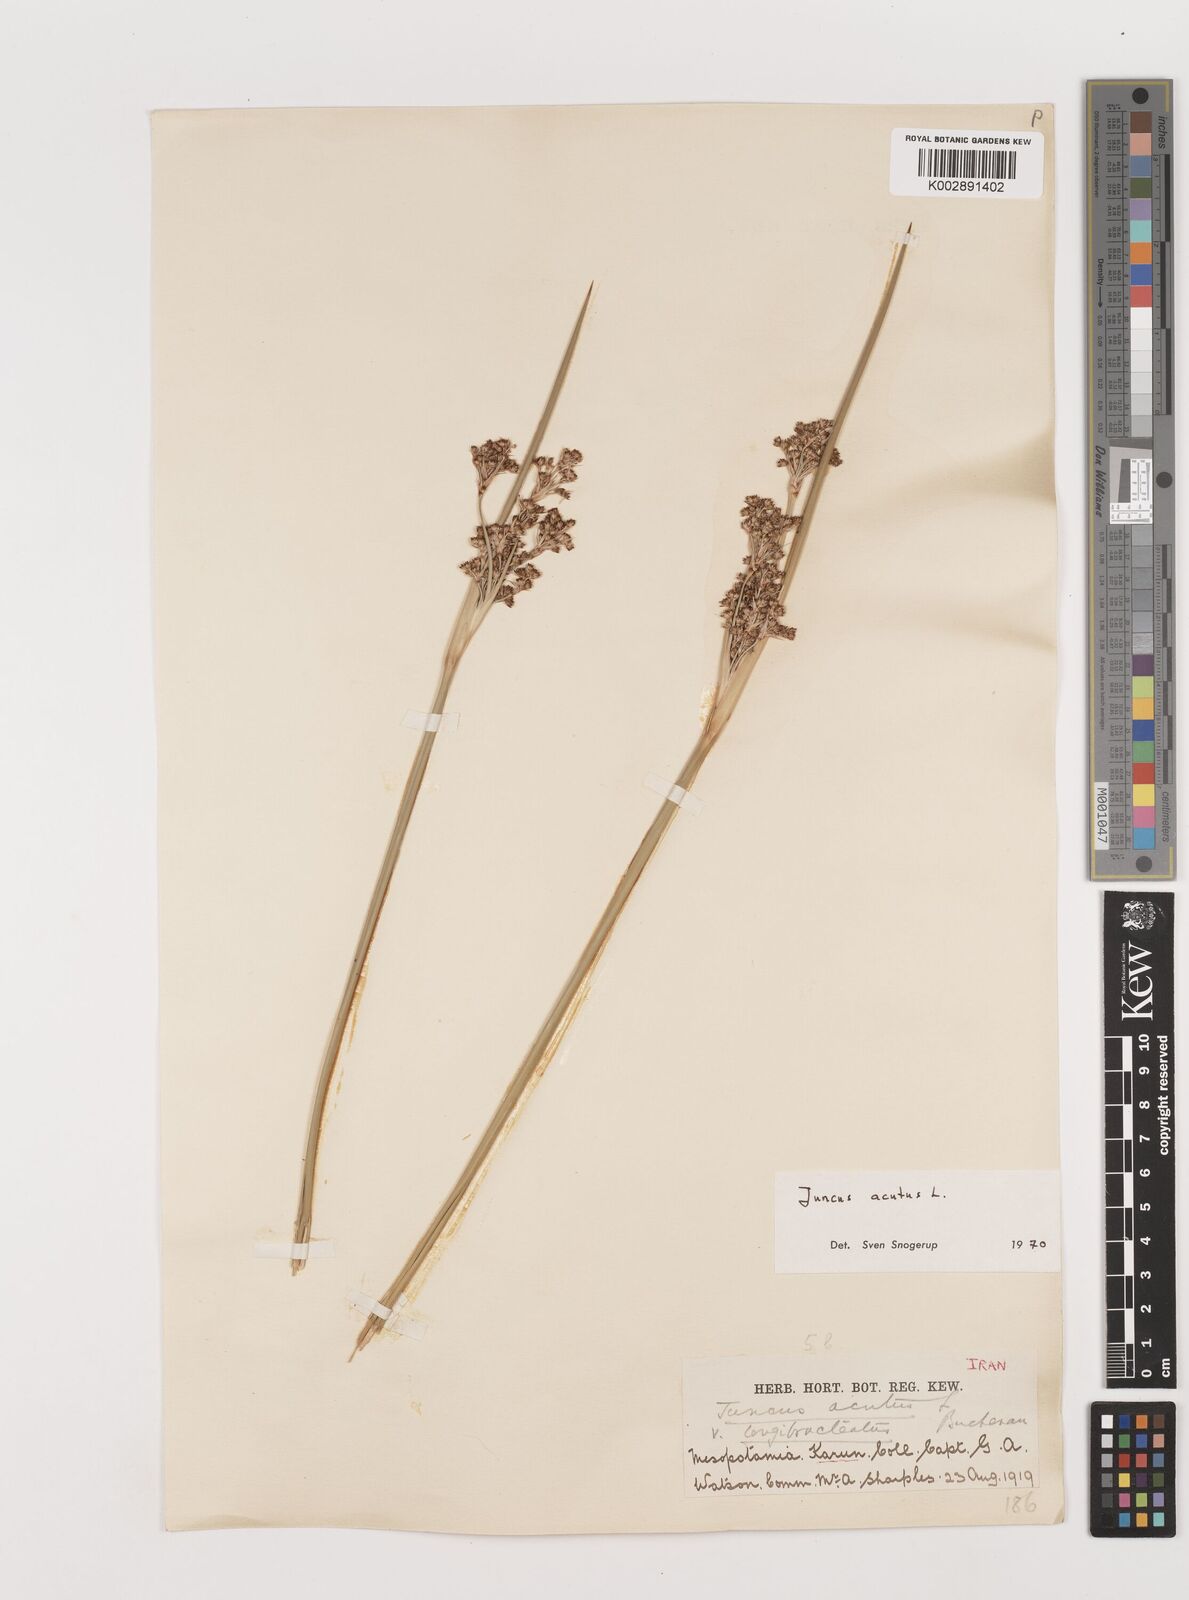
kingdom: Plantae
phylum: Tracheophyta
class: Liliopsida
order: Poales
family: Juncaceae
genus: Juncus
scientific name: Juncus acutus
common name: Sharp rush
